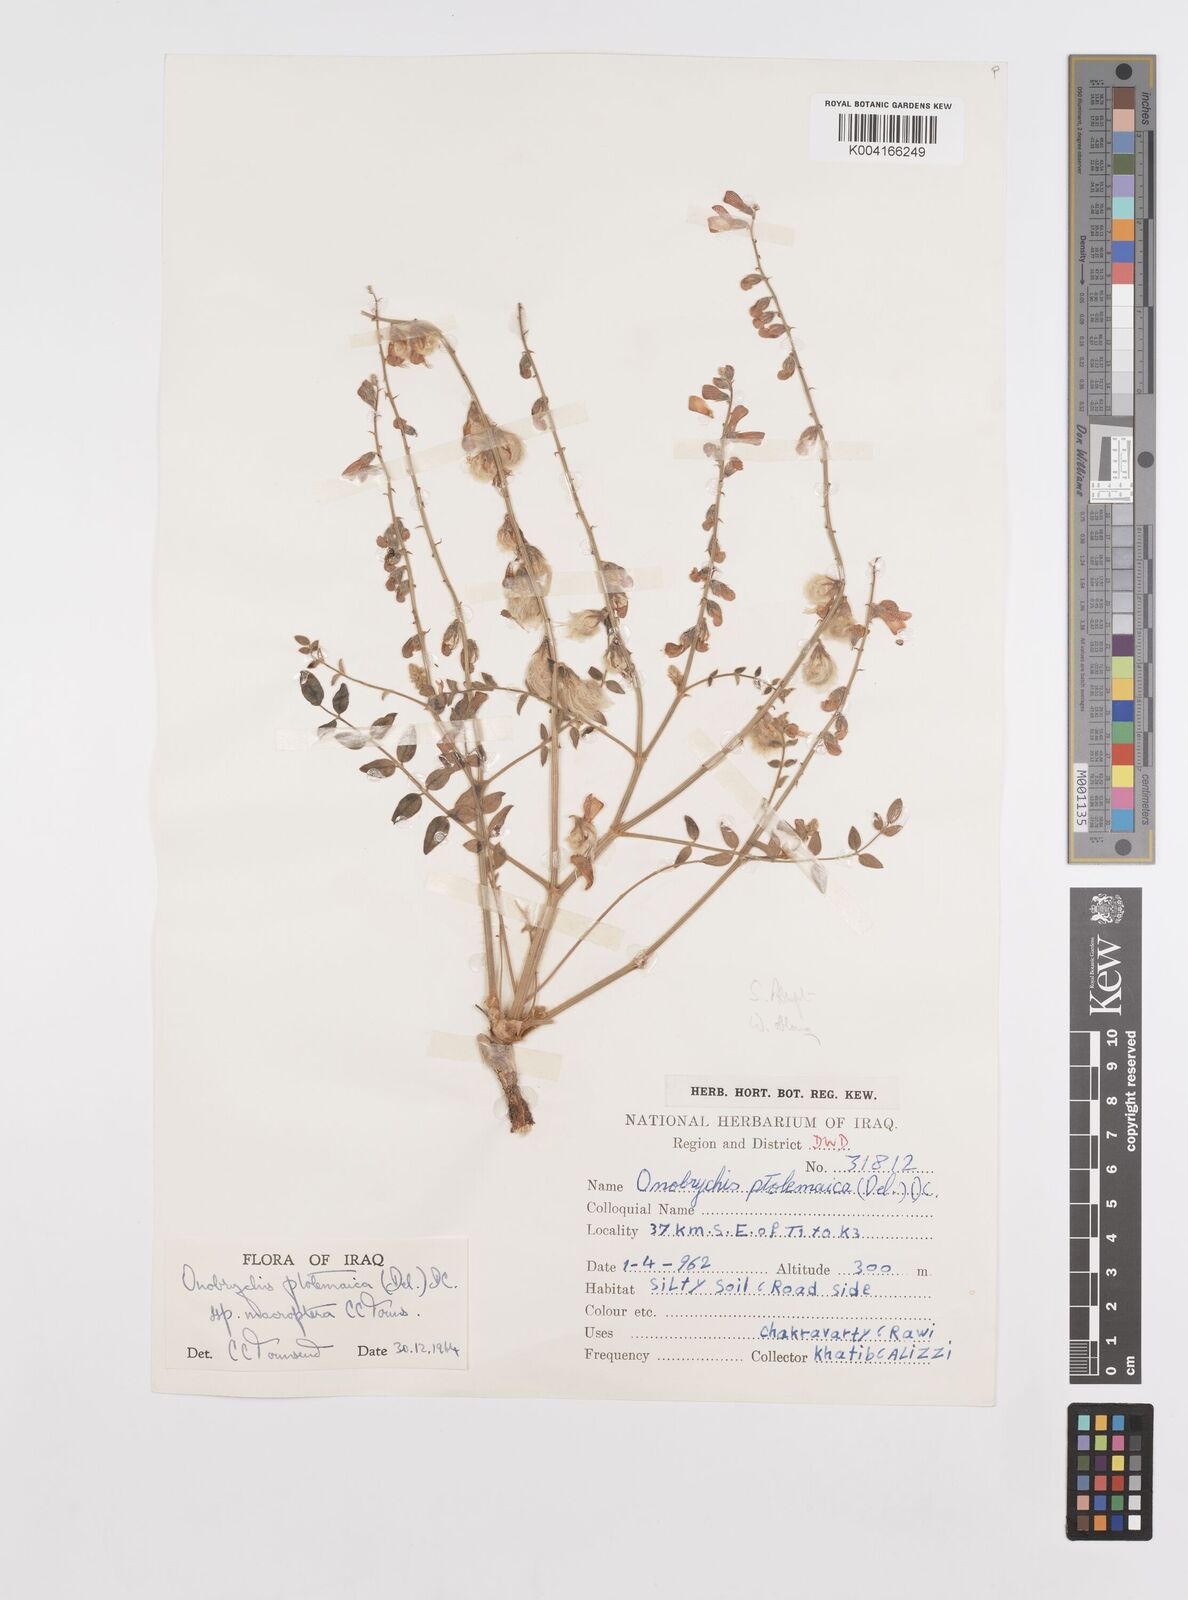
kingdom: Plantae
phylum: Tracheophyta
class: Magnoliopsida
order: Fabales
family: Fabaceae
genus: Onobrychis
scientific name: Onobrychis ptolemaica
